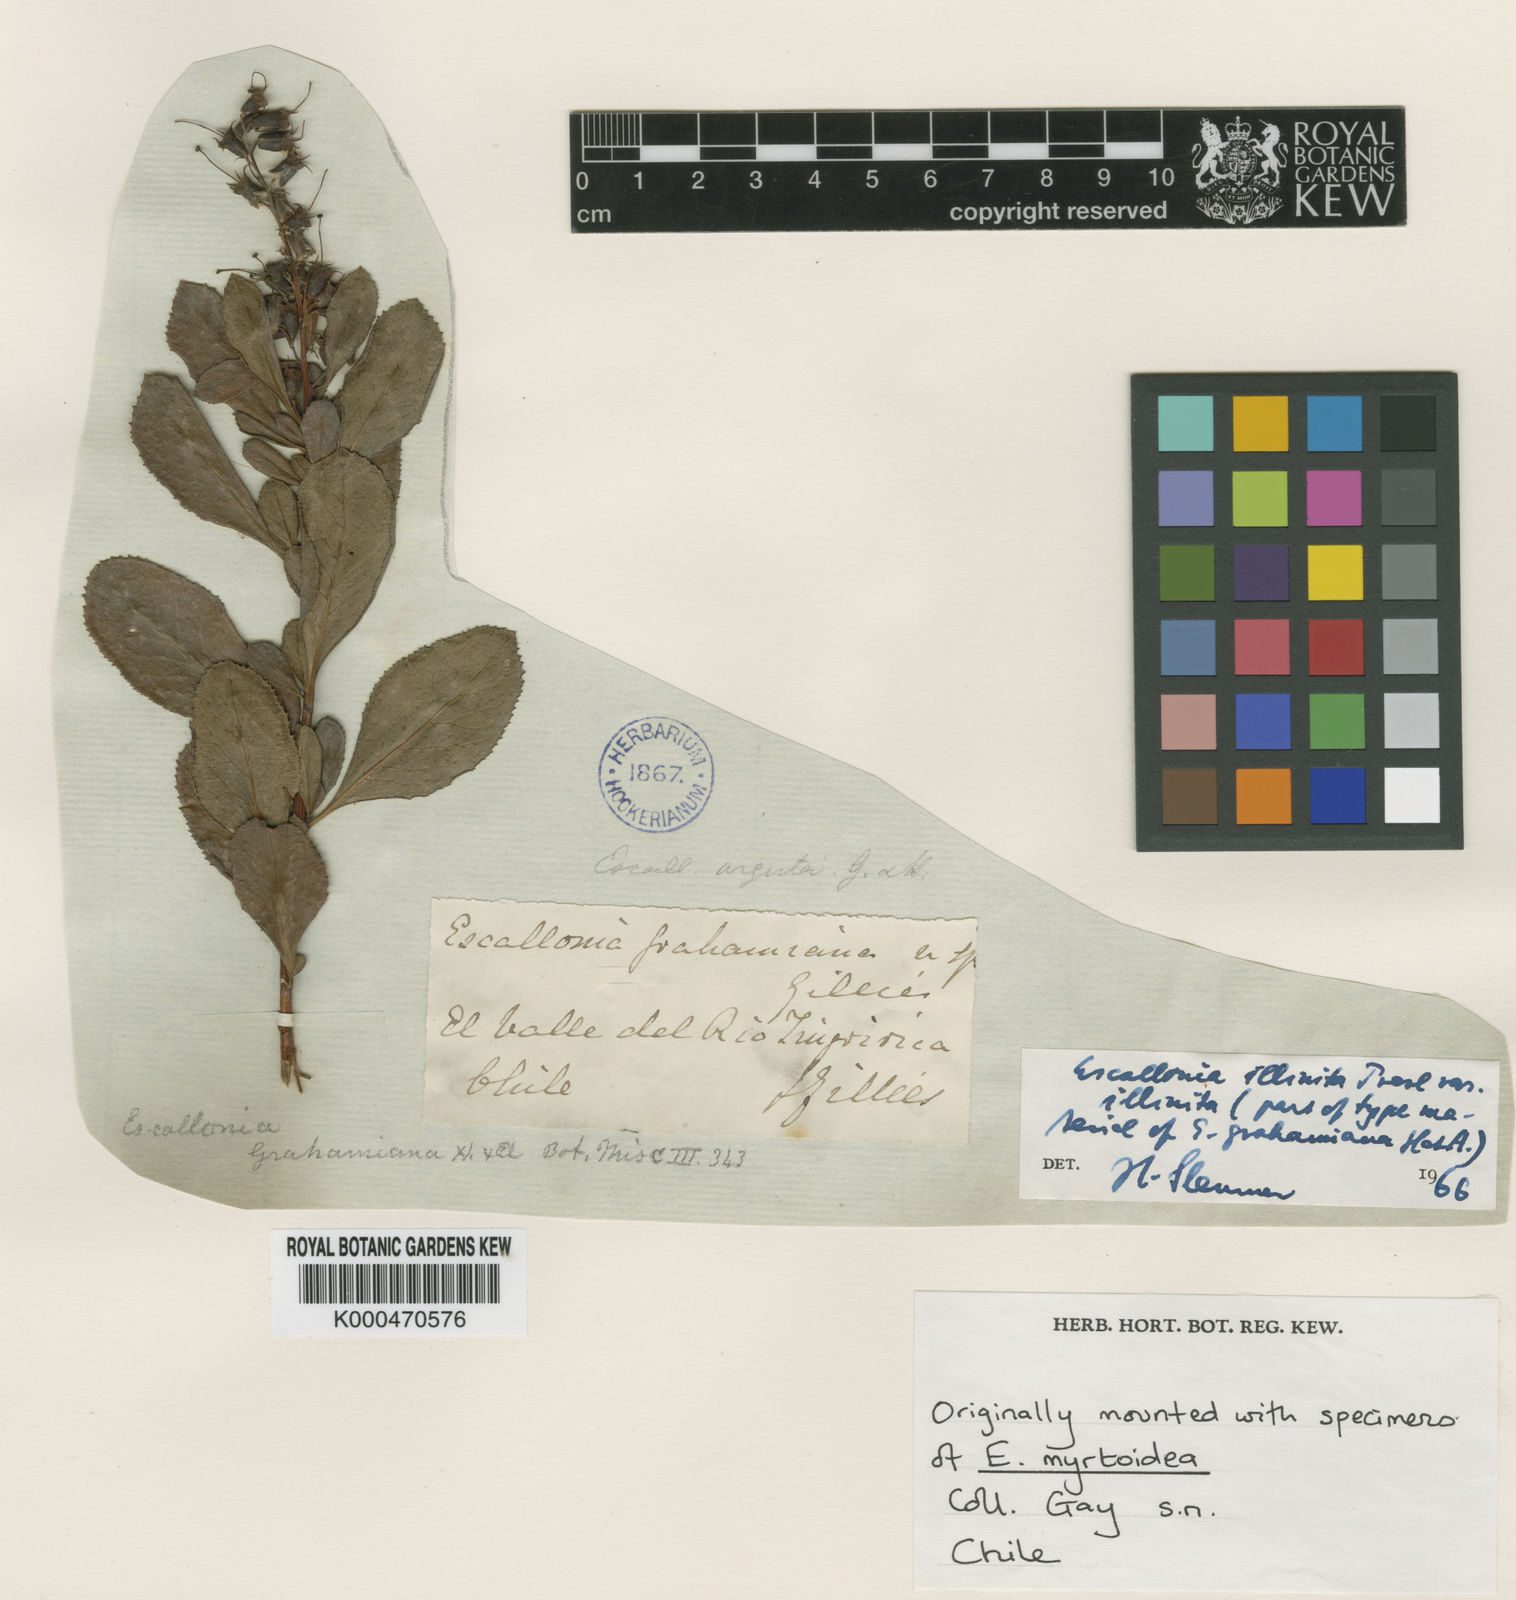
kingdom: Plantae
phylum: Tracheophyta
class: Magnoliopsida
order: Escalloniales
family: Escalloniaceae
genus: Escallonia
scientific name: Escallonia illinita
